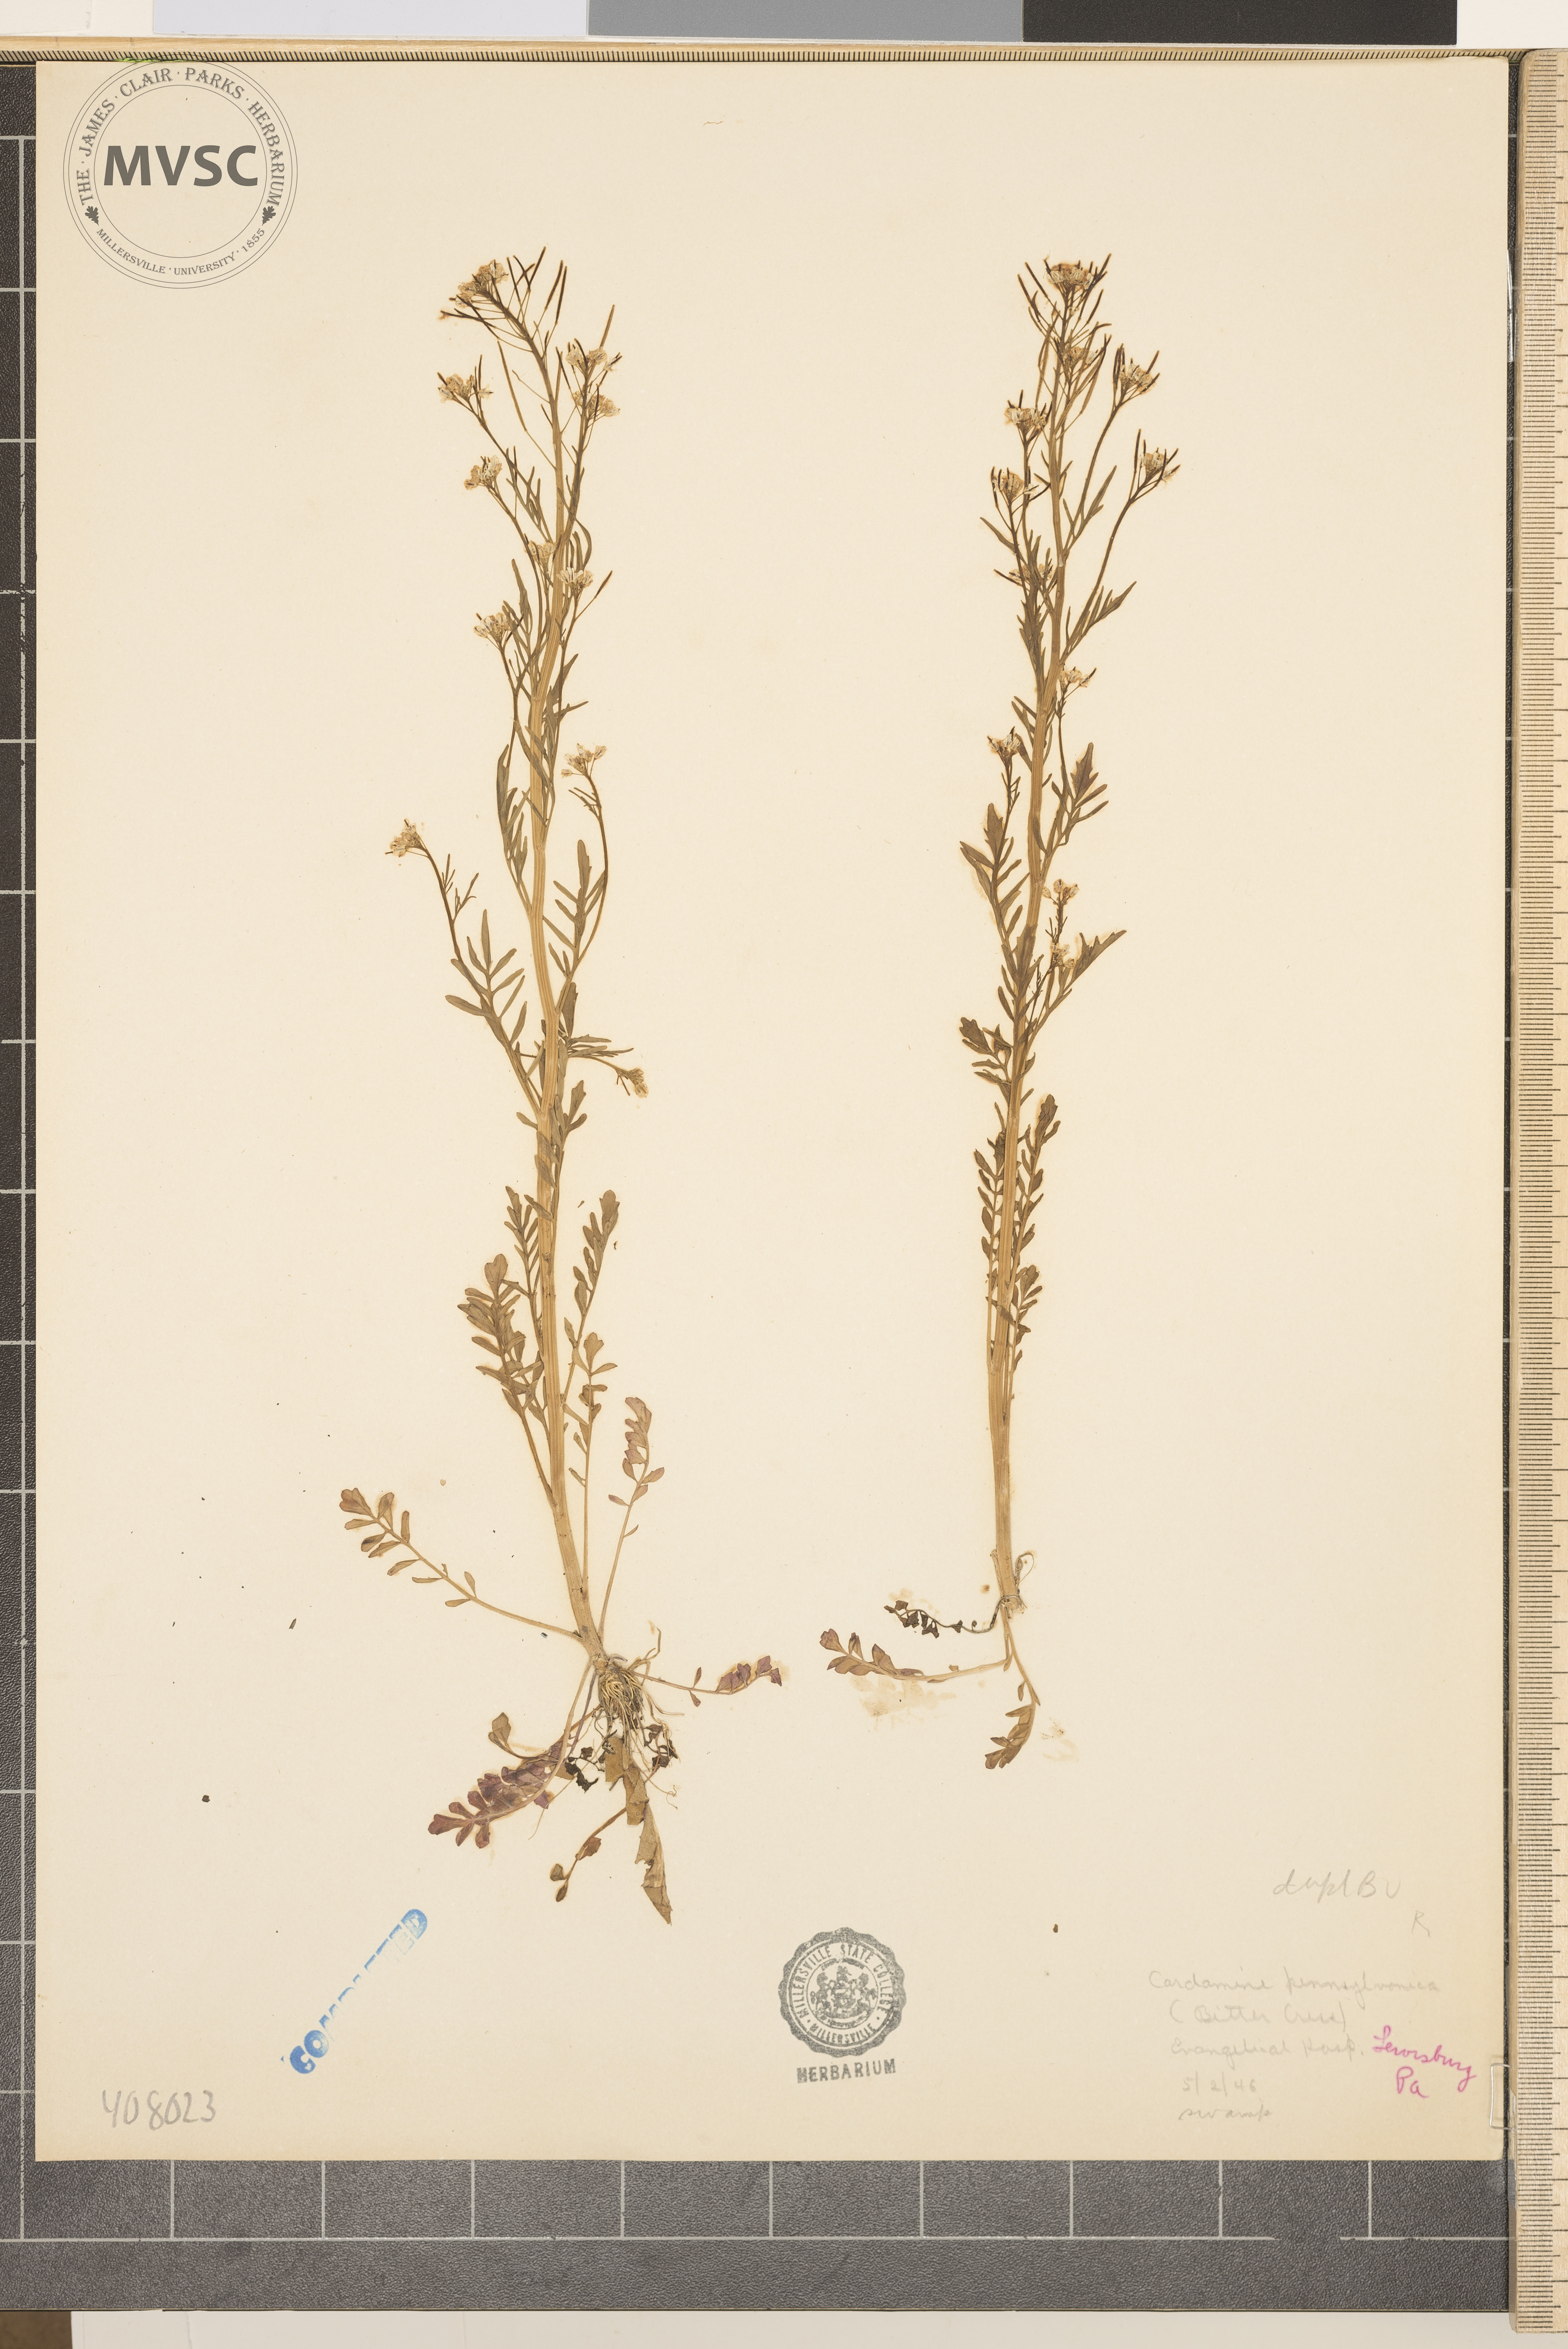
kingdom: Plantae
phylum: Tracheophyta
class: Magnoliopsida
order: Brassicales
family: Brassicaceae
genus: Cardamine
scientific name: Cardamine pensylvanica
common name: Pennsylvania bittercress
